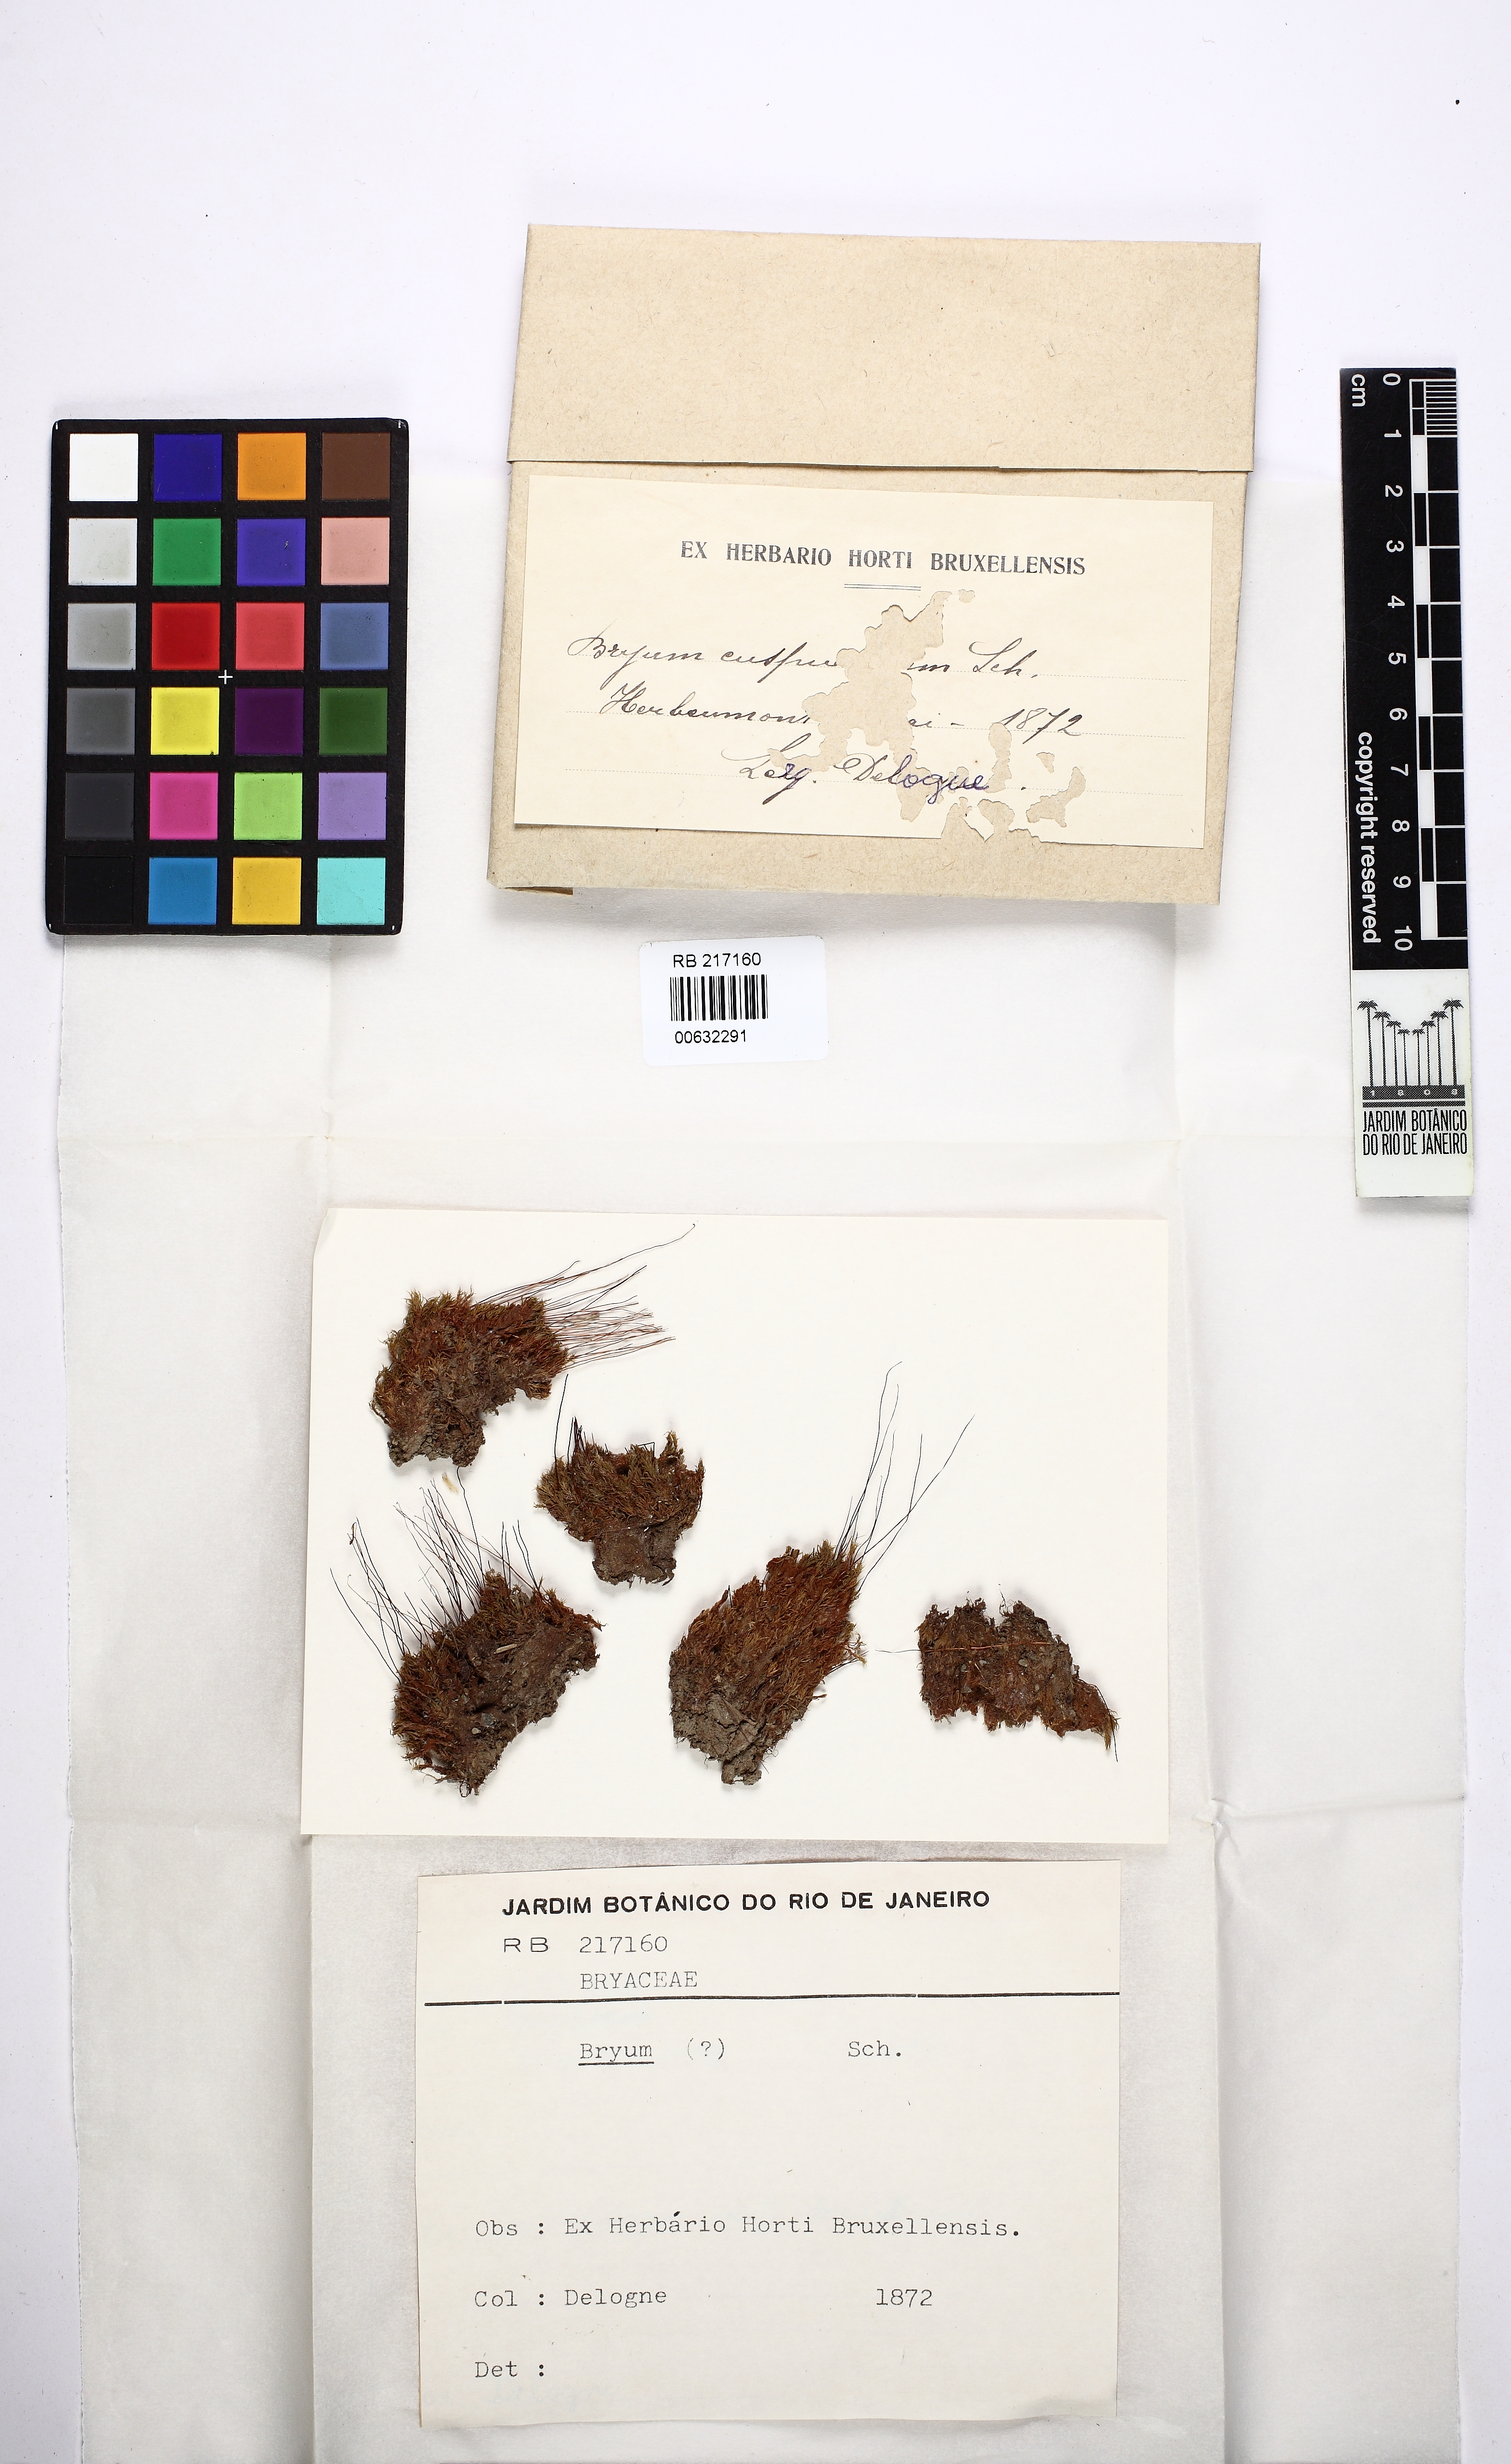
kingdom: Plantae
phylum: Bryophyta
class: Bryopsida
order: Bryales
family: Bryaceae
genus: Bryum
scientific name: Bryum
